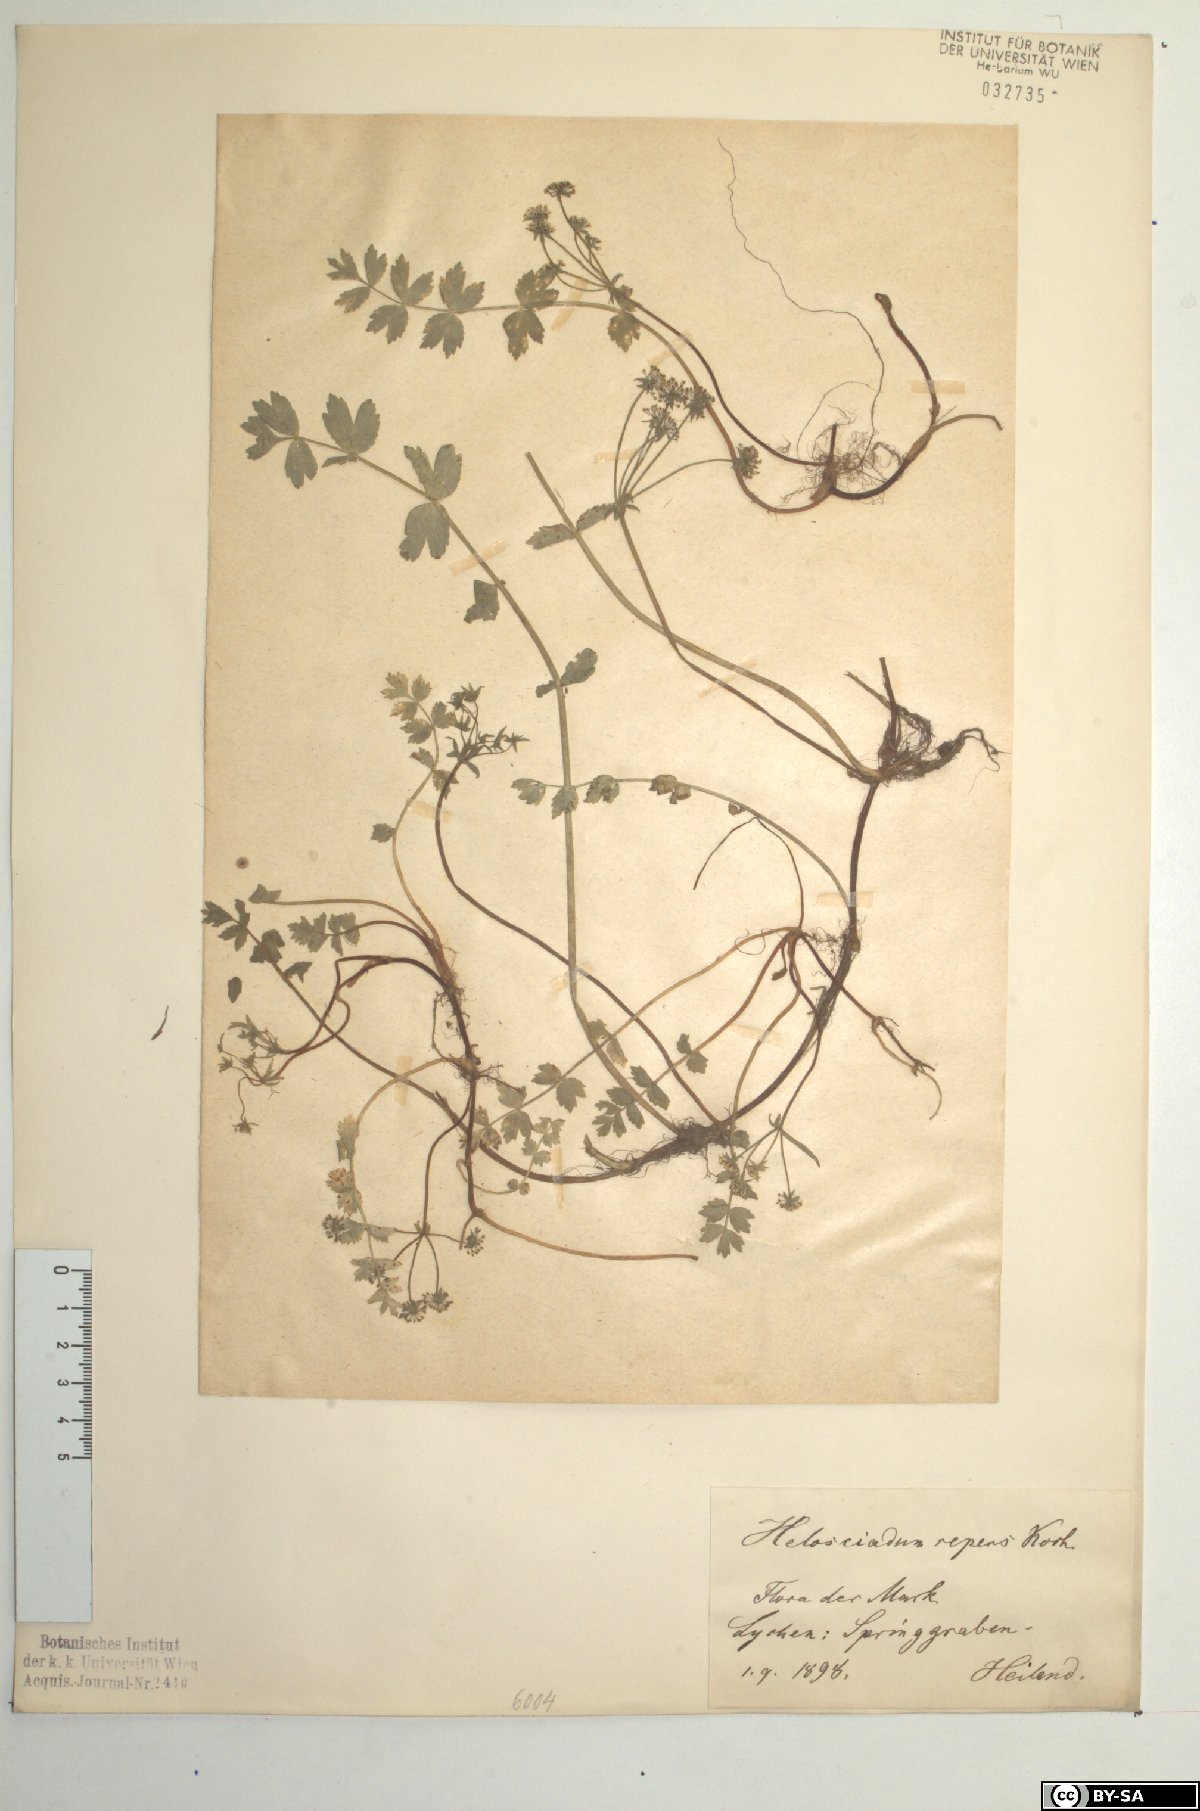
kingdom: Plantae
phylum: Tracheophyta
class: Magnoliopsida
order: Apiales
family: Apiaceae
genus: Helosciadium
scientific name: Helosciadium repens
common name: Creeping marshwort
